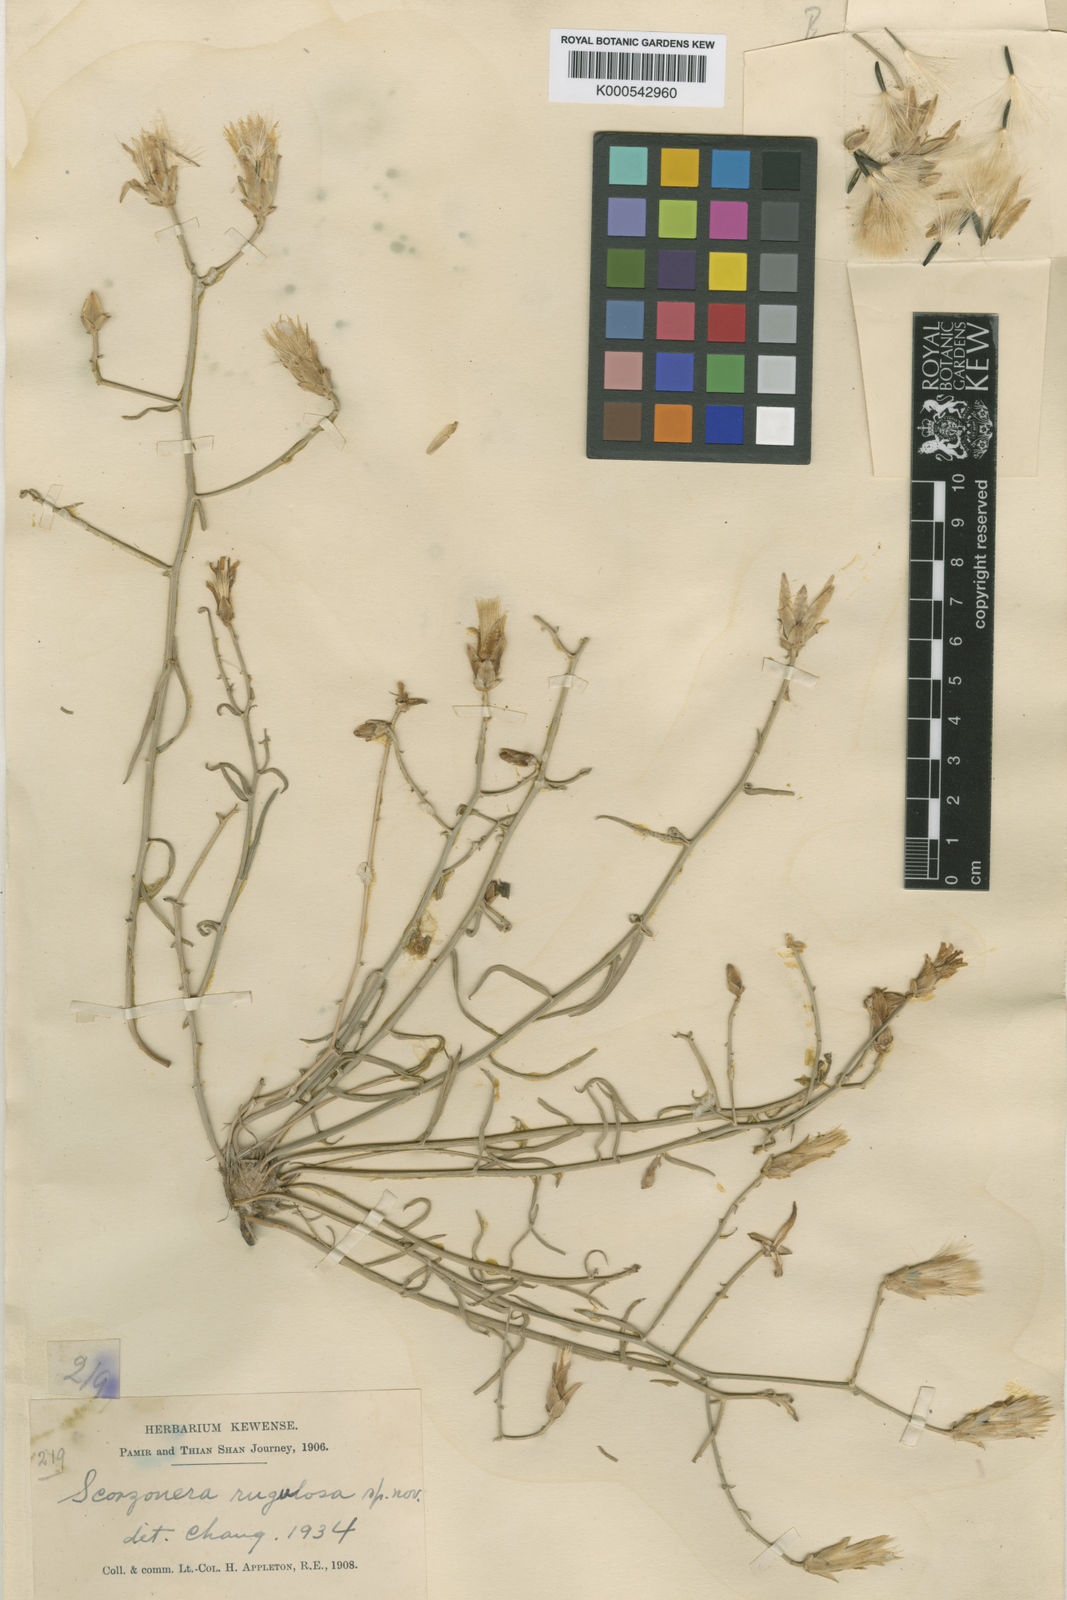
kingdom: Plantae
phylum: Tracheophyta
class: Magnoliopsida
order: Asterales
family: Asteraceae
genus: Takhtajaniantha
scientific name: Takhtajaniantha pseudodivaricata
